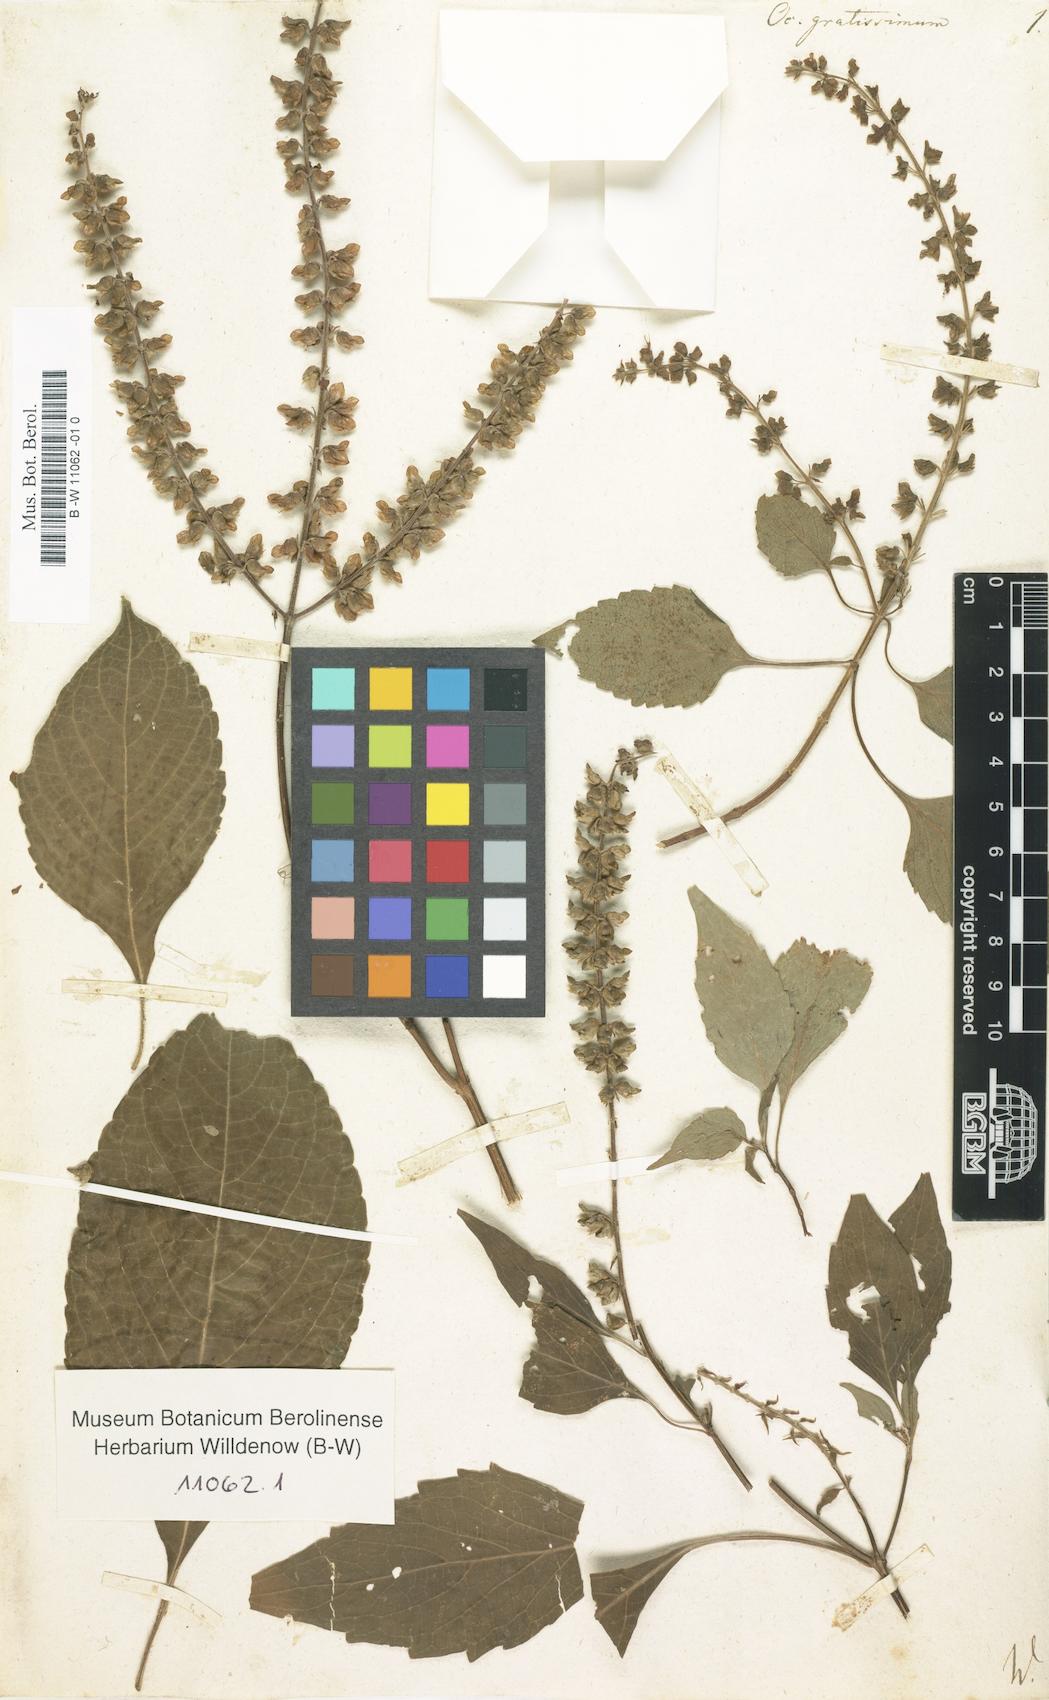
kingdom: Plantae
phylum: Tracheophyta
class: Magnoliopsida
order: Lamiales
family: Lamiaceae
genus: Ocimum
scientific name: Ocimum gratissimum
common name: African basil
